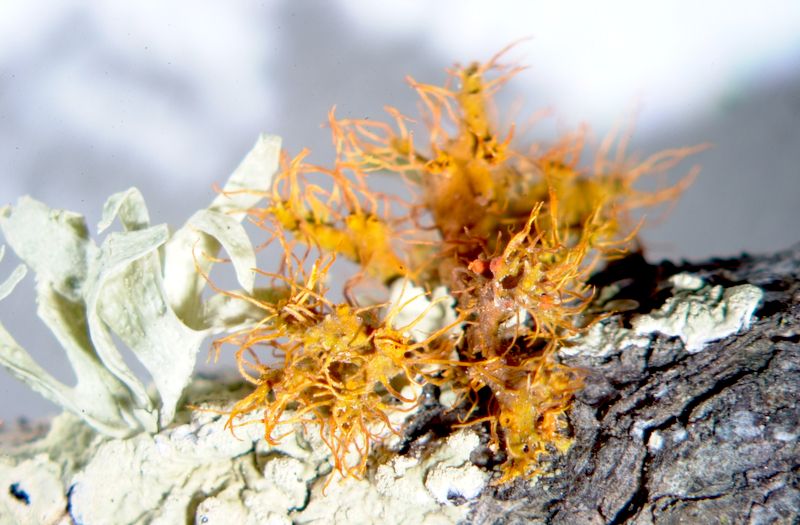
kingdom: Fungi
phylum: Ascomycota
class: Lecanoromycetes
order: Teloschistales
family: Teloschistaceae
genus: Niorma
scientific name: Niorma chrysophthalma
